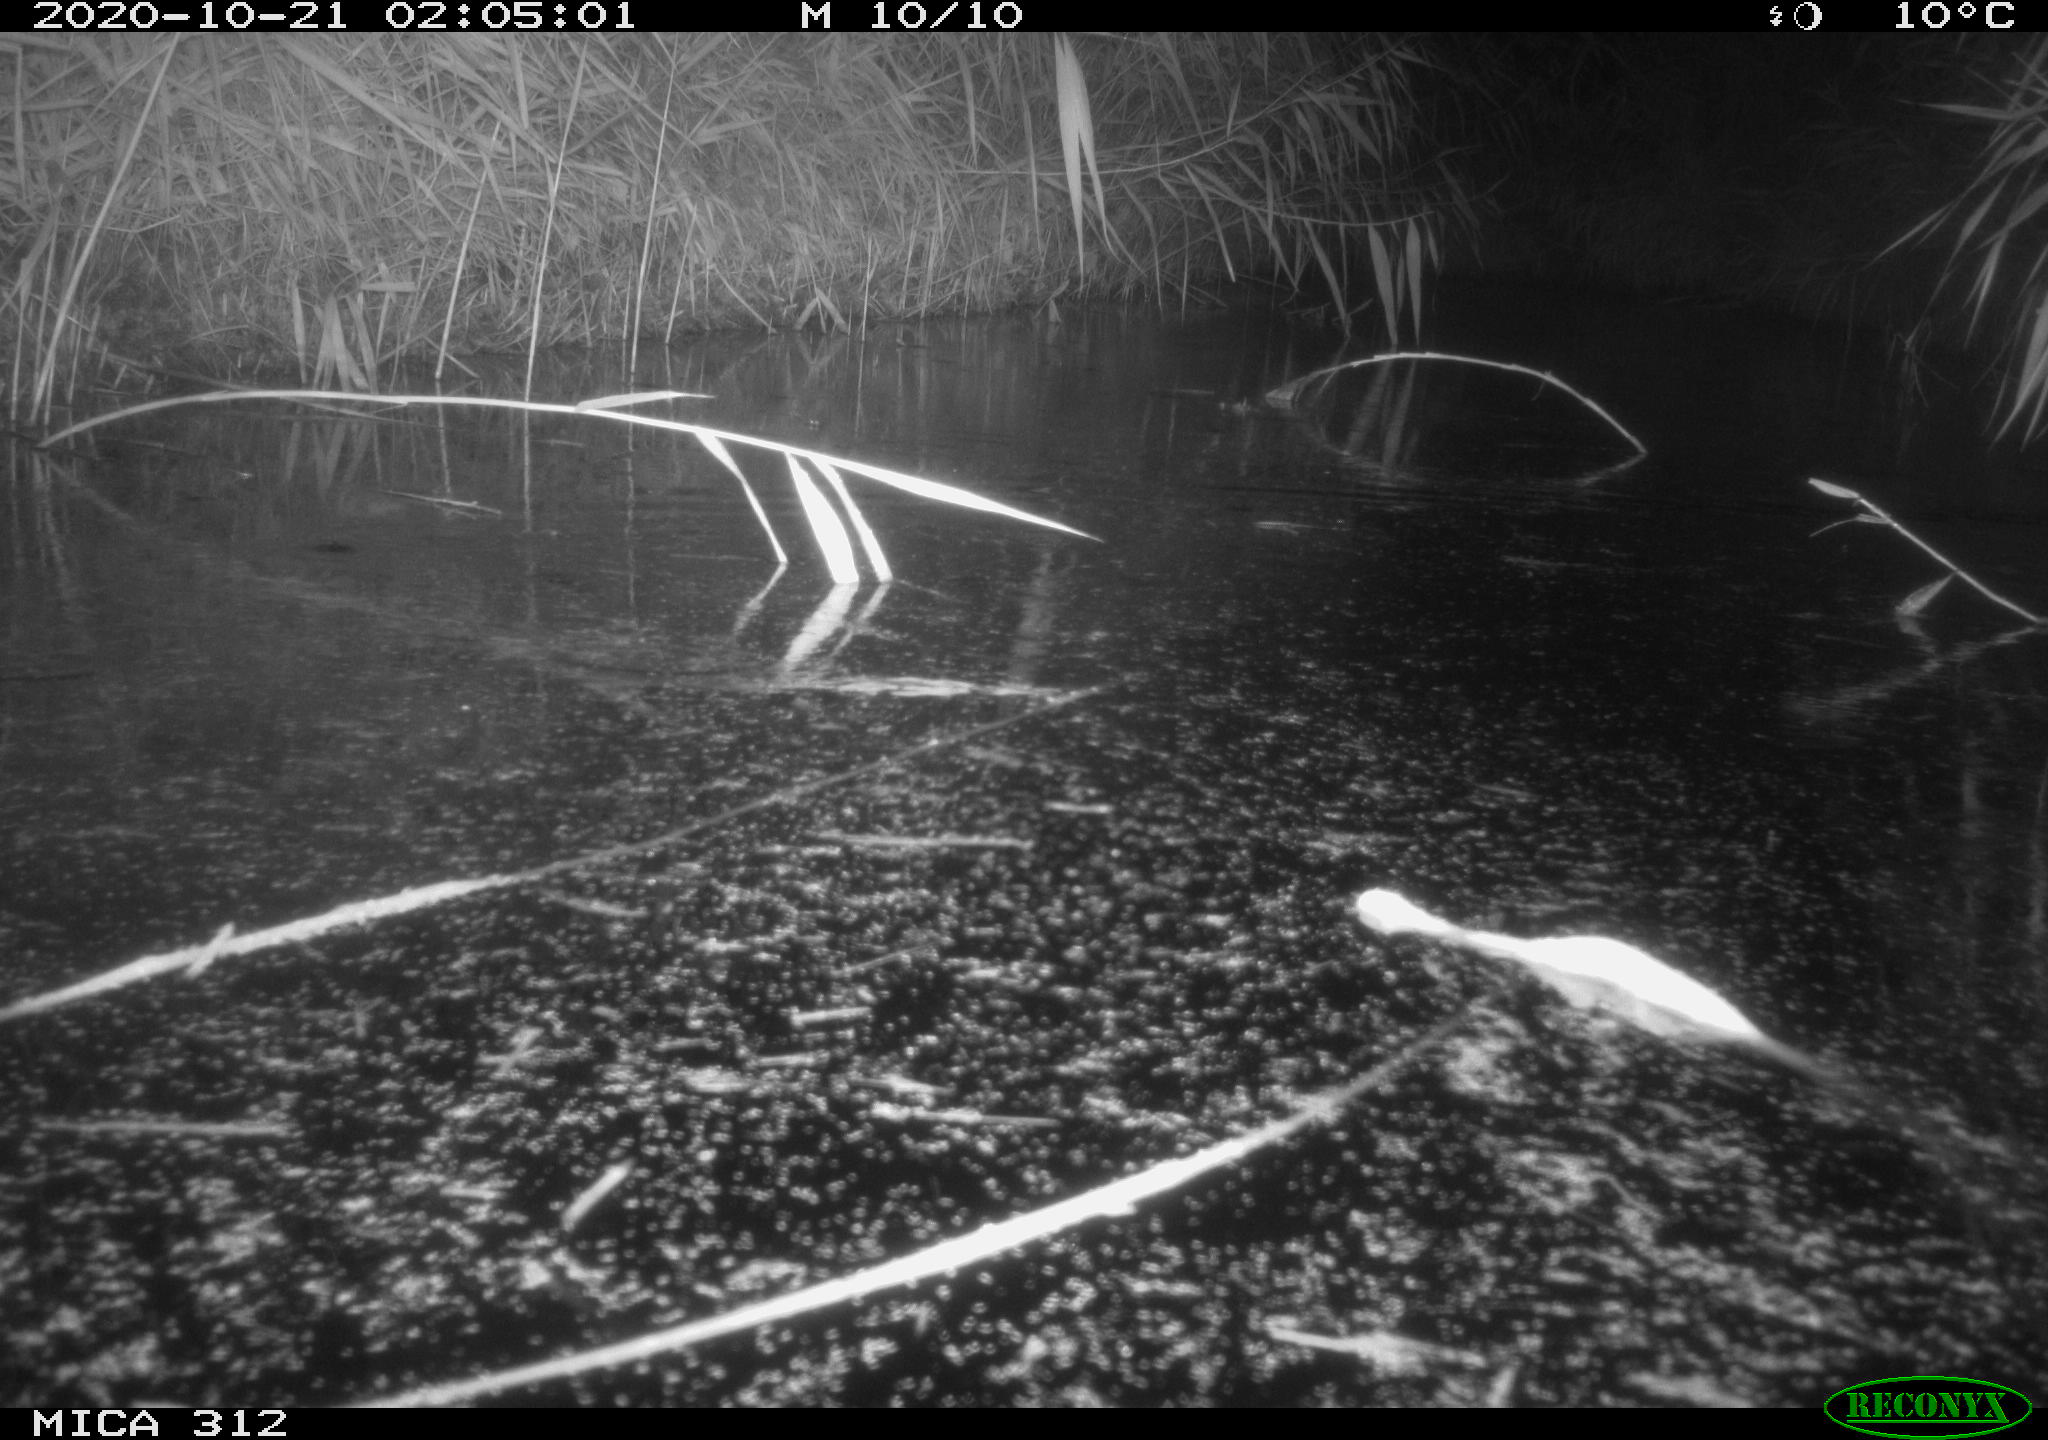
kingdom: Animalia
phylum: Chordata
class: Mammalia
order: Rodentia
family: Muridae
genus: Rattus
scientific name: Rattus norvegicus
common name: Brown rat
